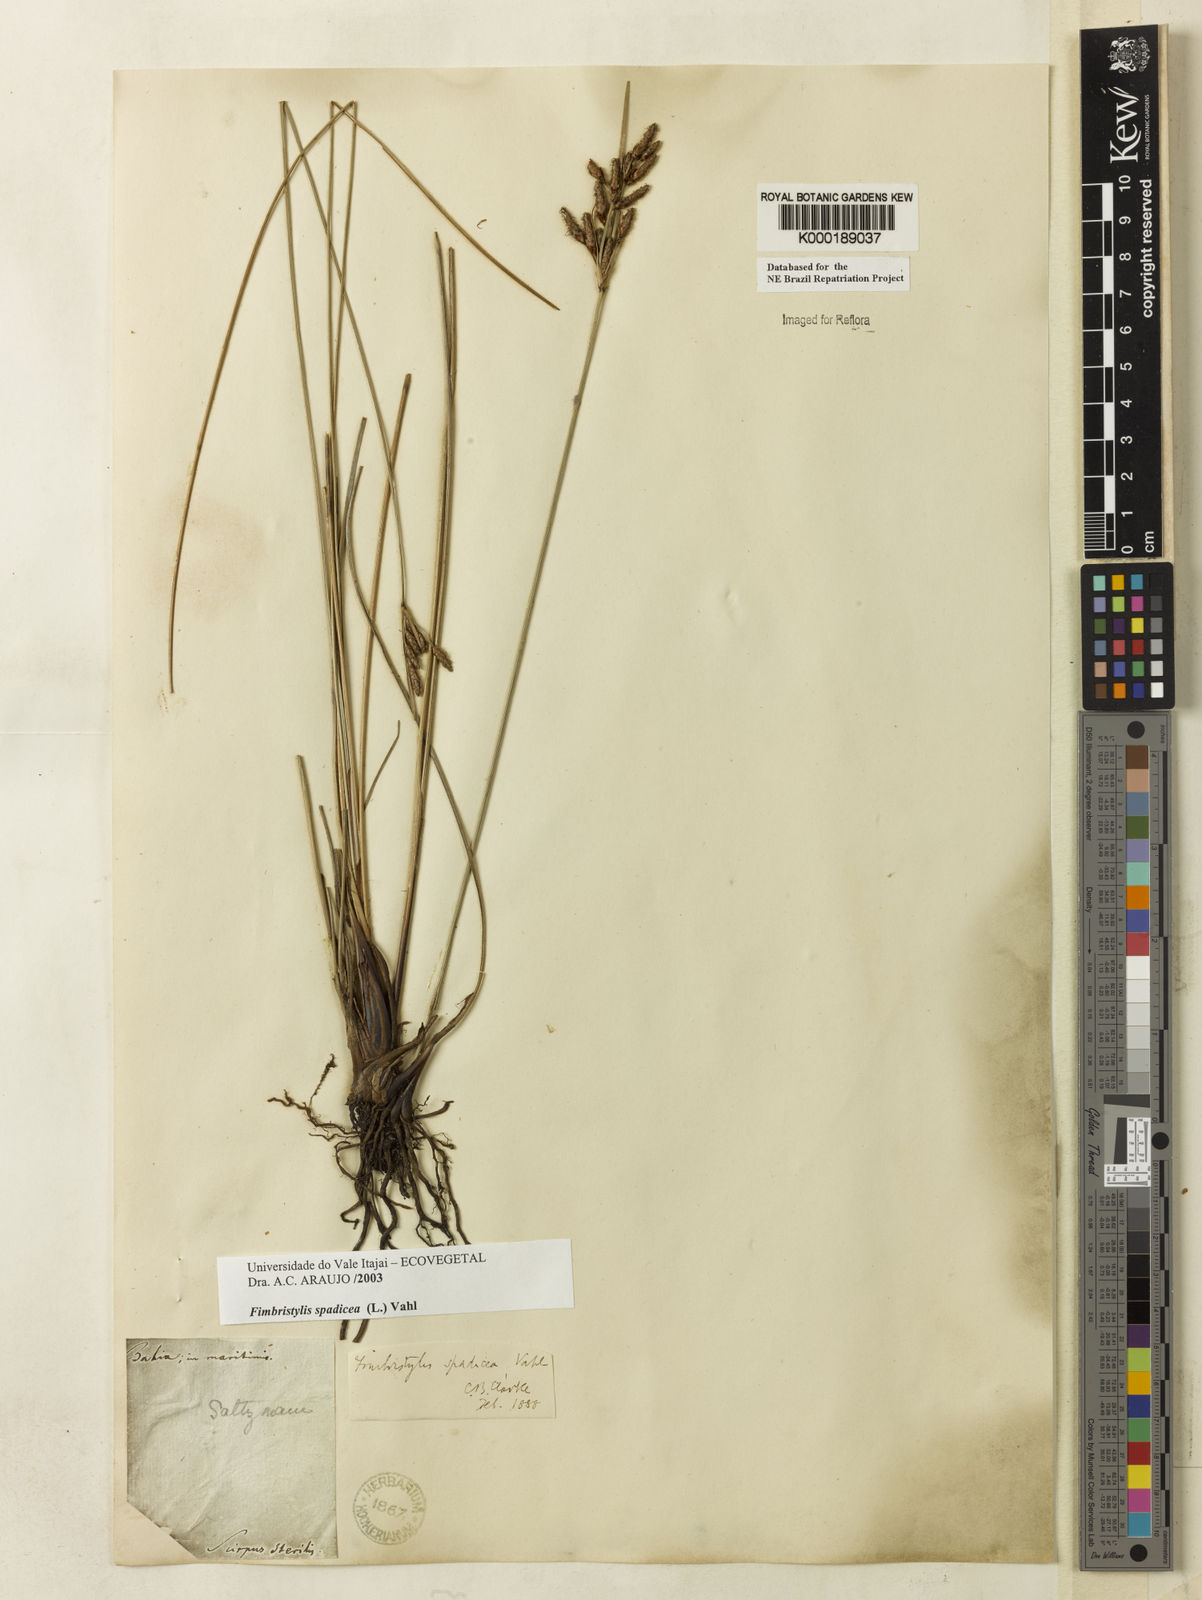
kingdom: Plantae
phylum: Tracheophyta
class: Liliopsida
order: Poales
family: Cyperaceae
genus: Fimbristylis
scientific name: Fimbristylis spadicea
